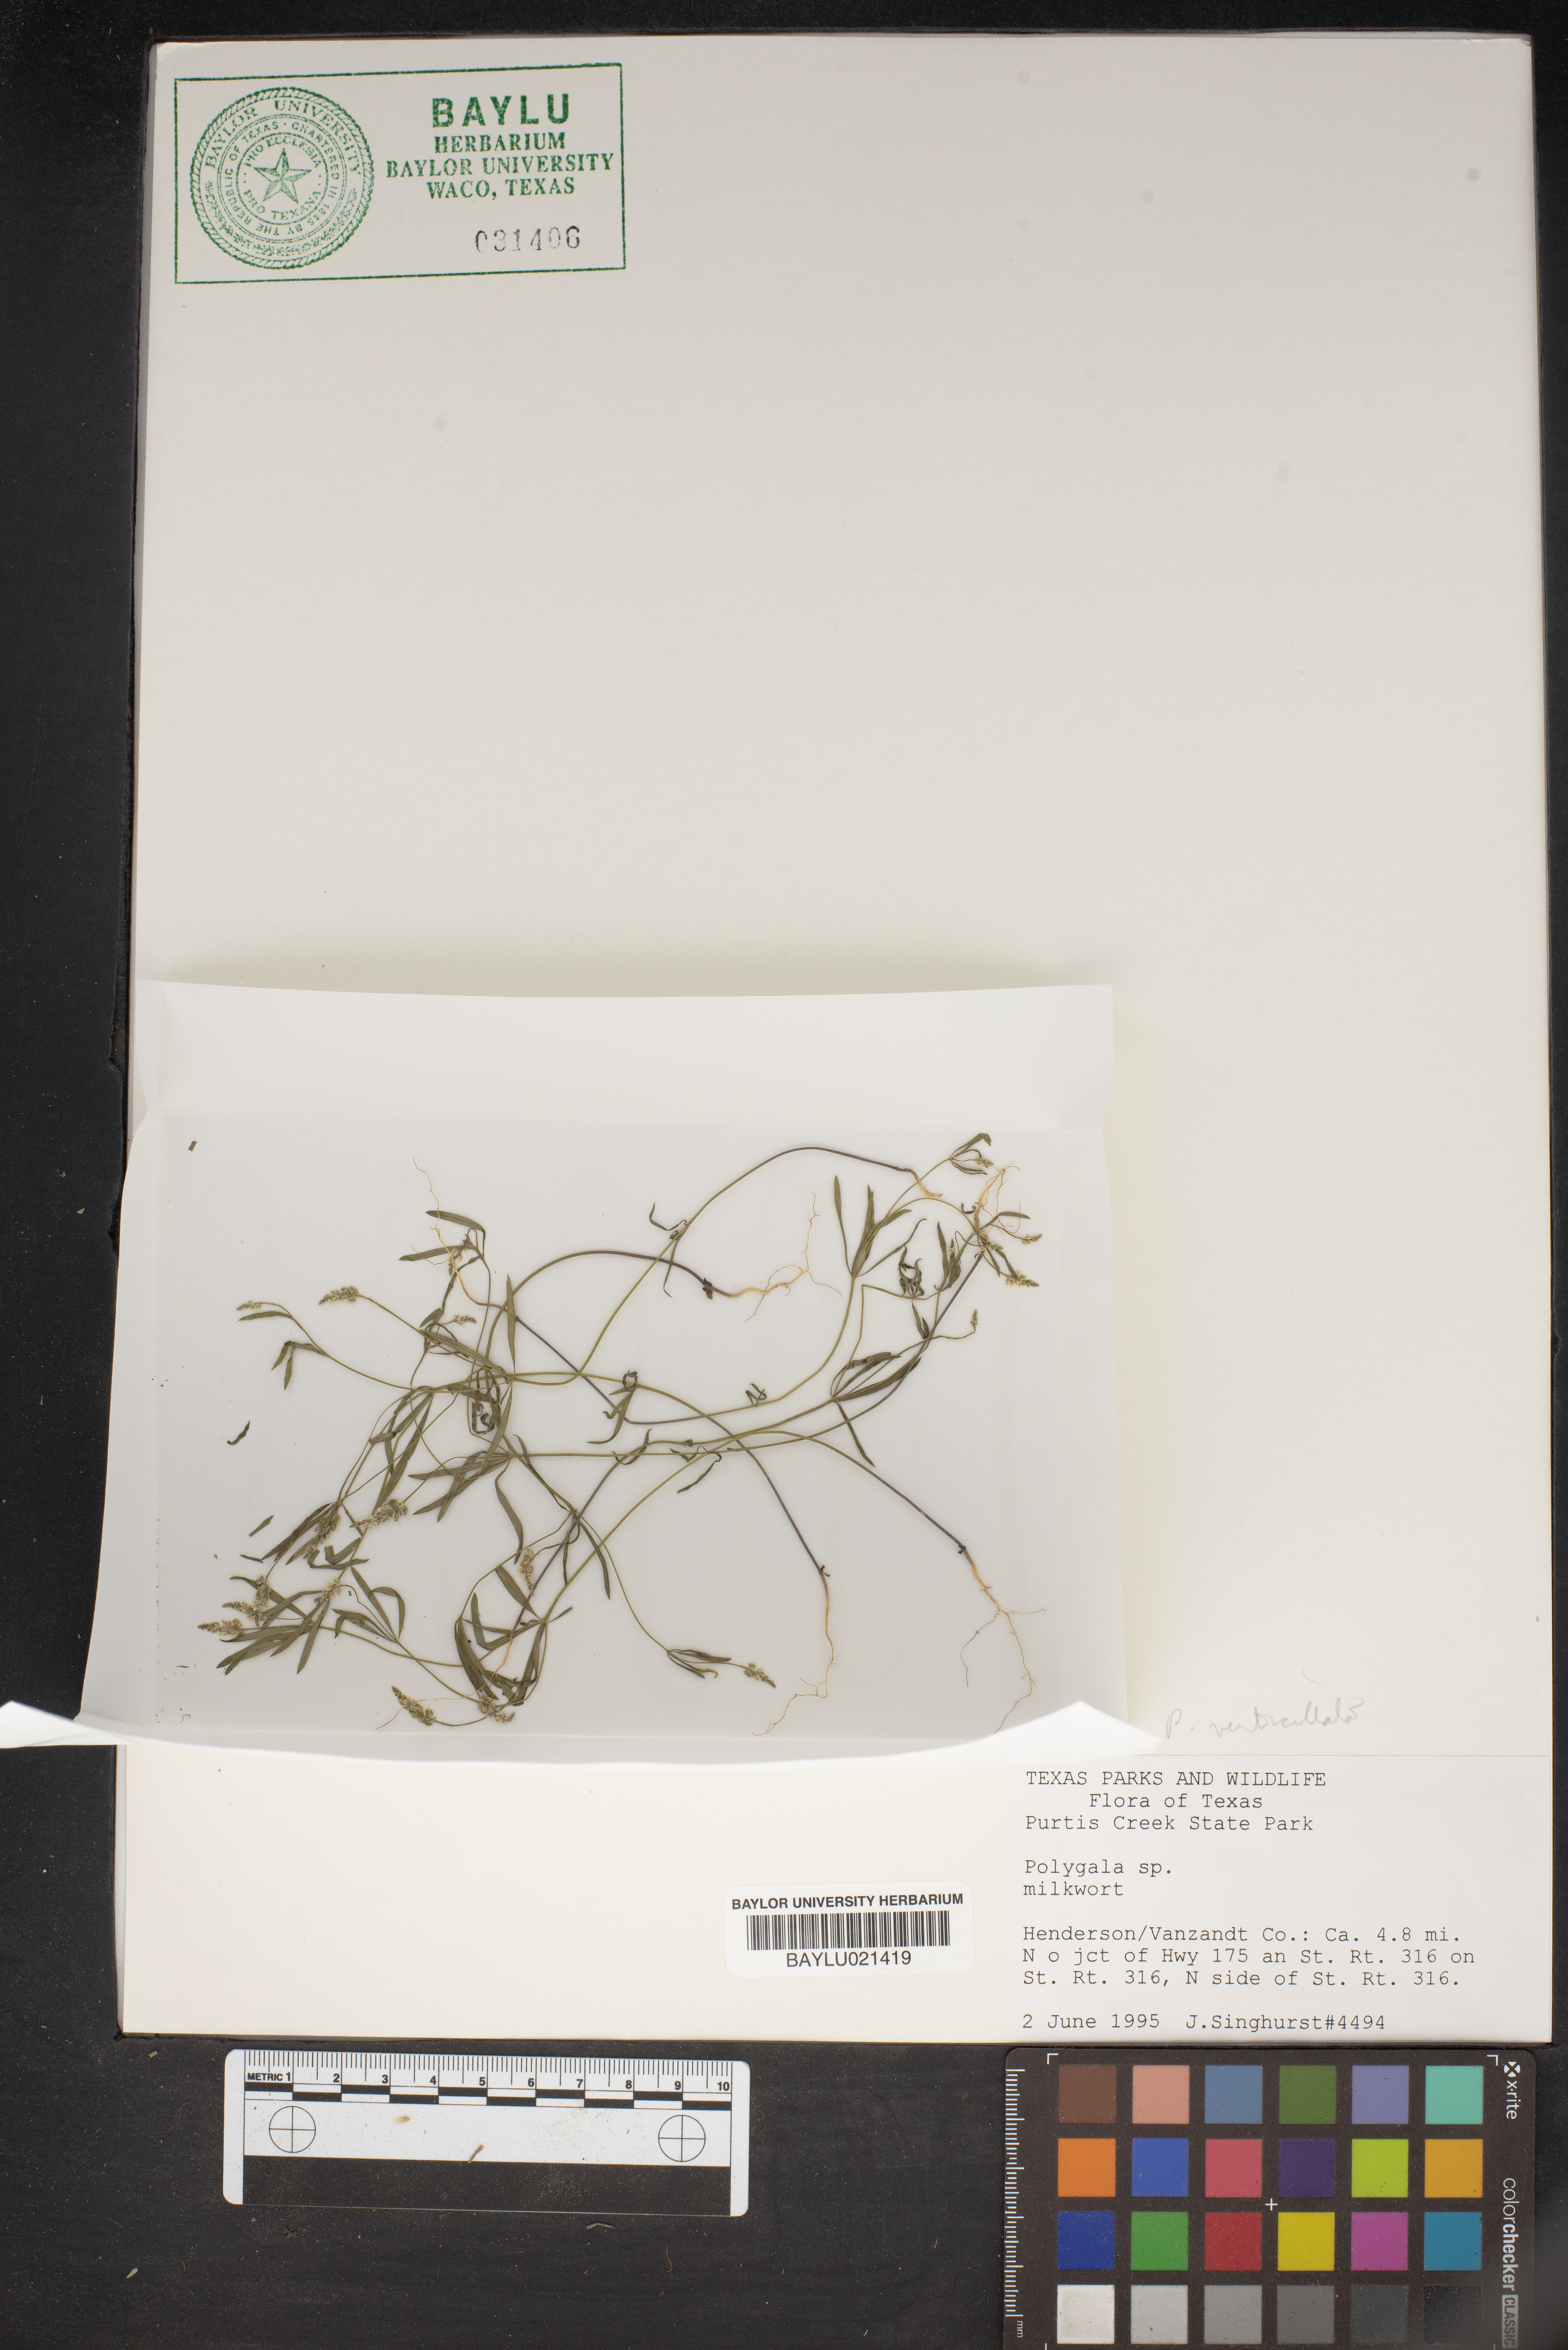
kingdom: Plantae
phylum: Tracheophyta
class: Magnoliopsida
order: Fabales
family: Polygalaceae
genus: Polygala
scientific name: Polygala
